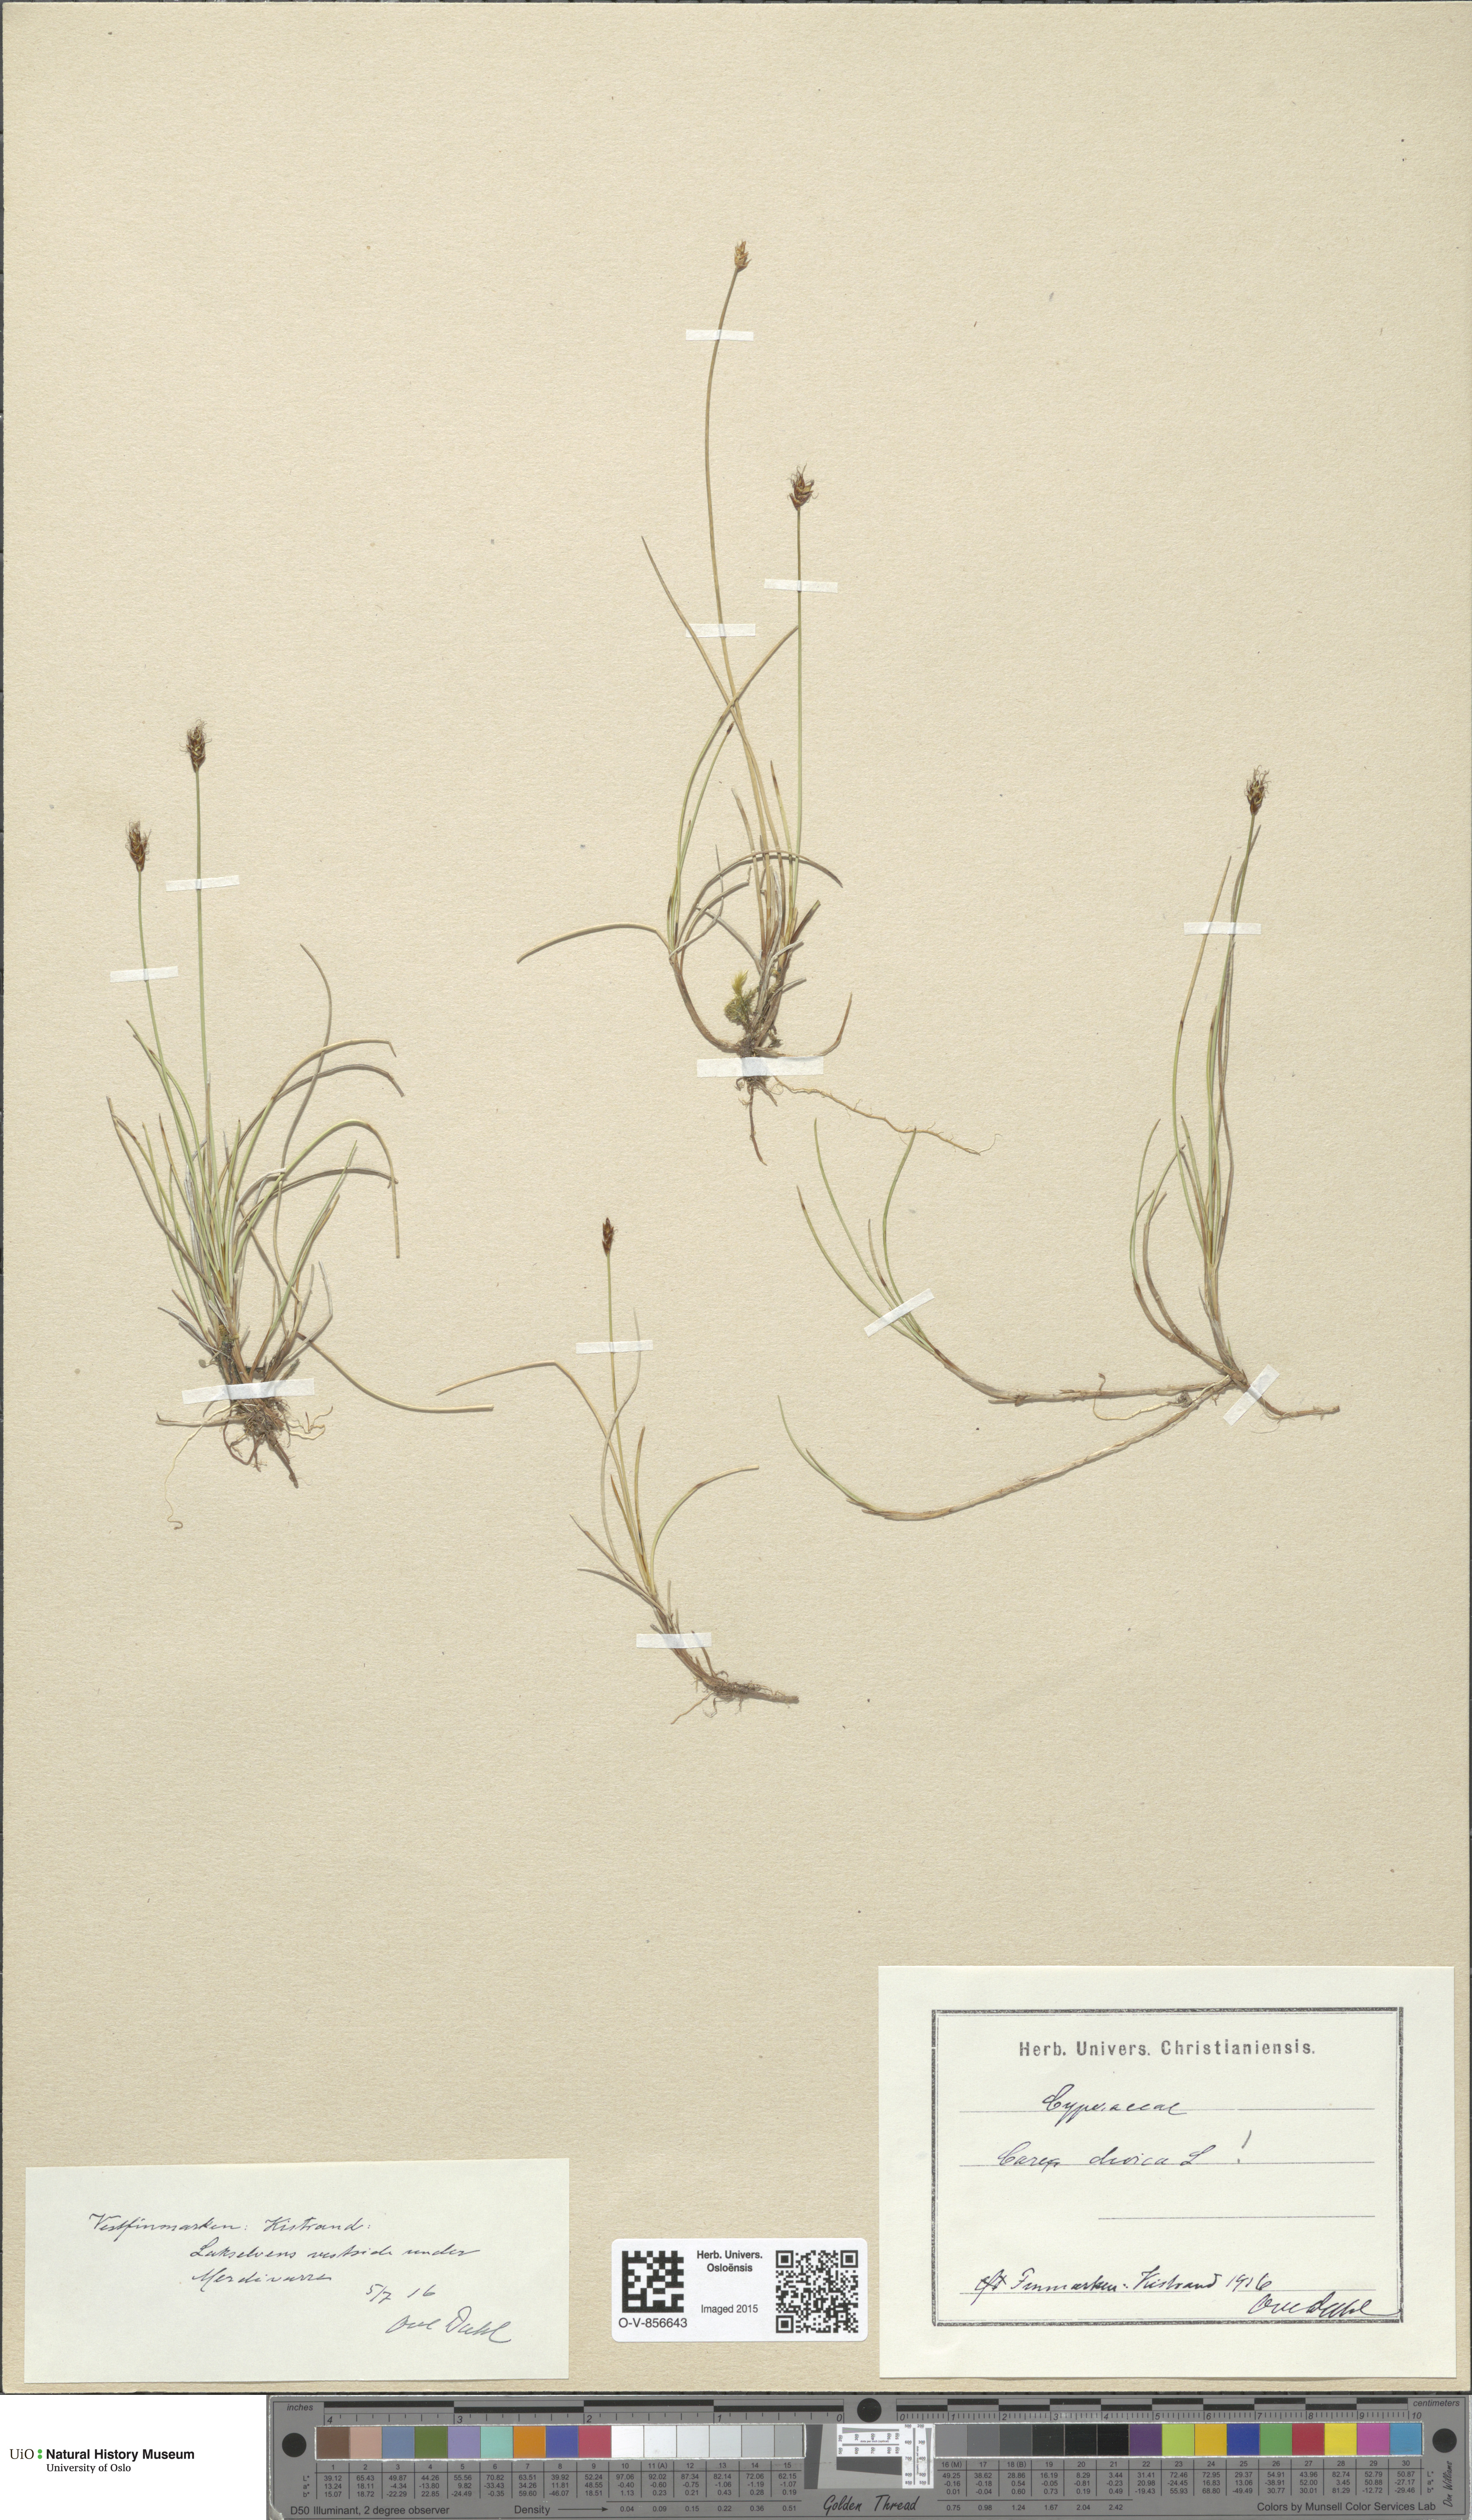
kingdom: Plantae
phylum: Tracheophyta
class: Liliopsida
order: Poales
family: Cyperaceae
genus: Carex
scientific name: Carex dioica
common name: Dioecious sedge
